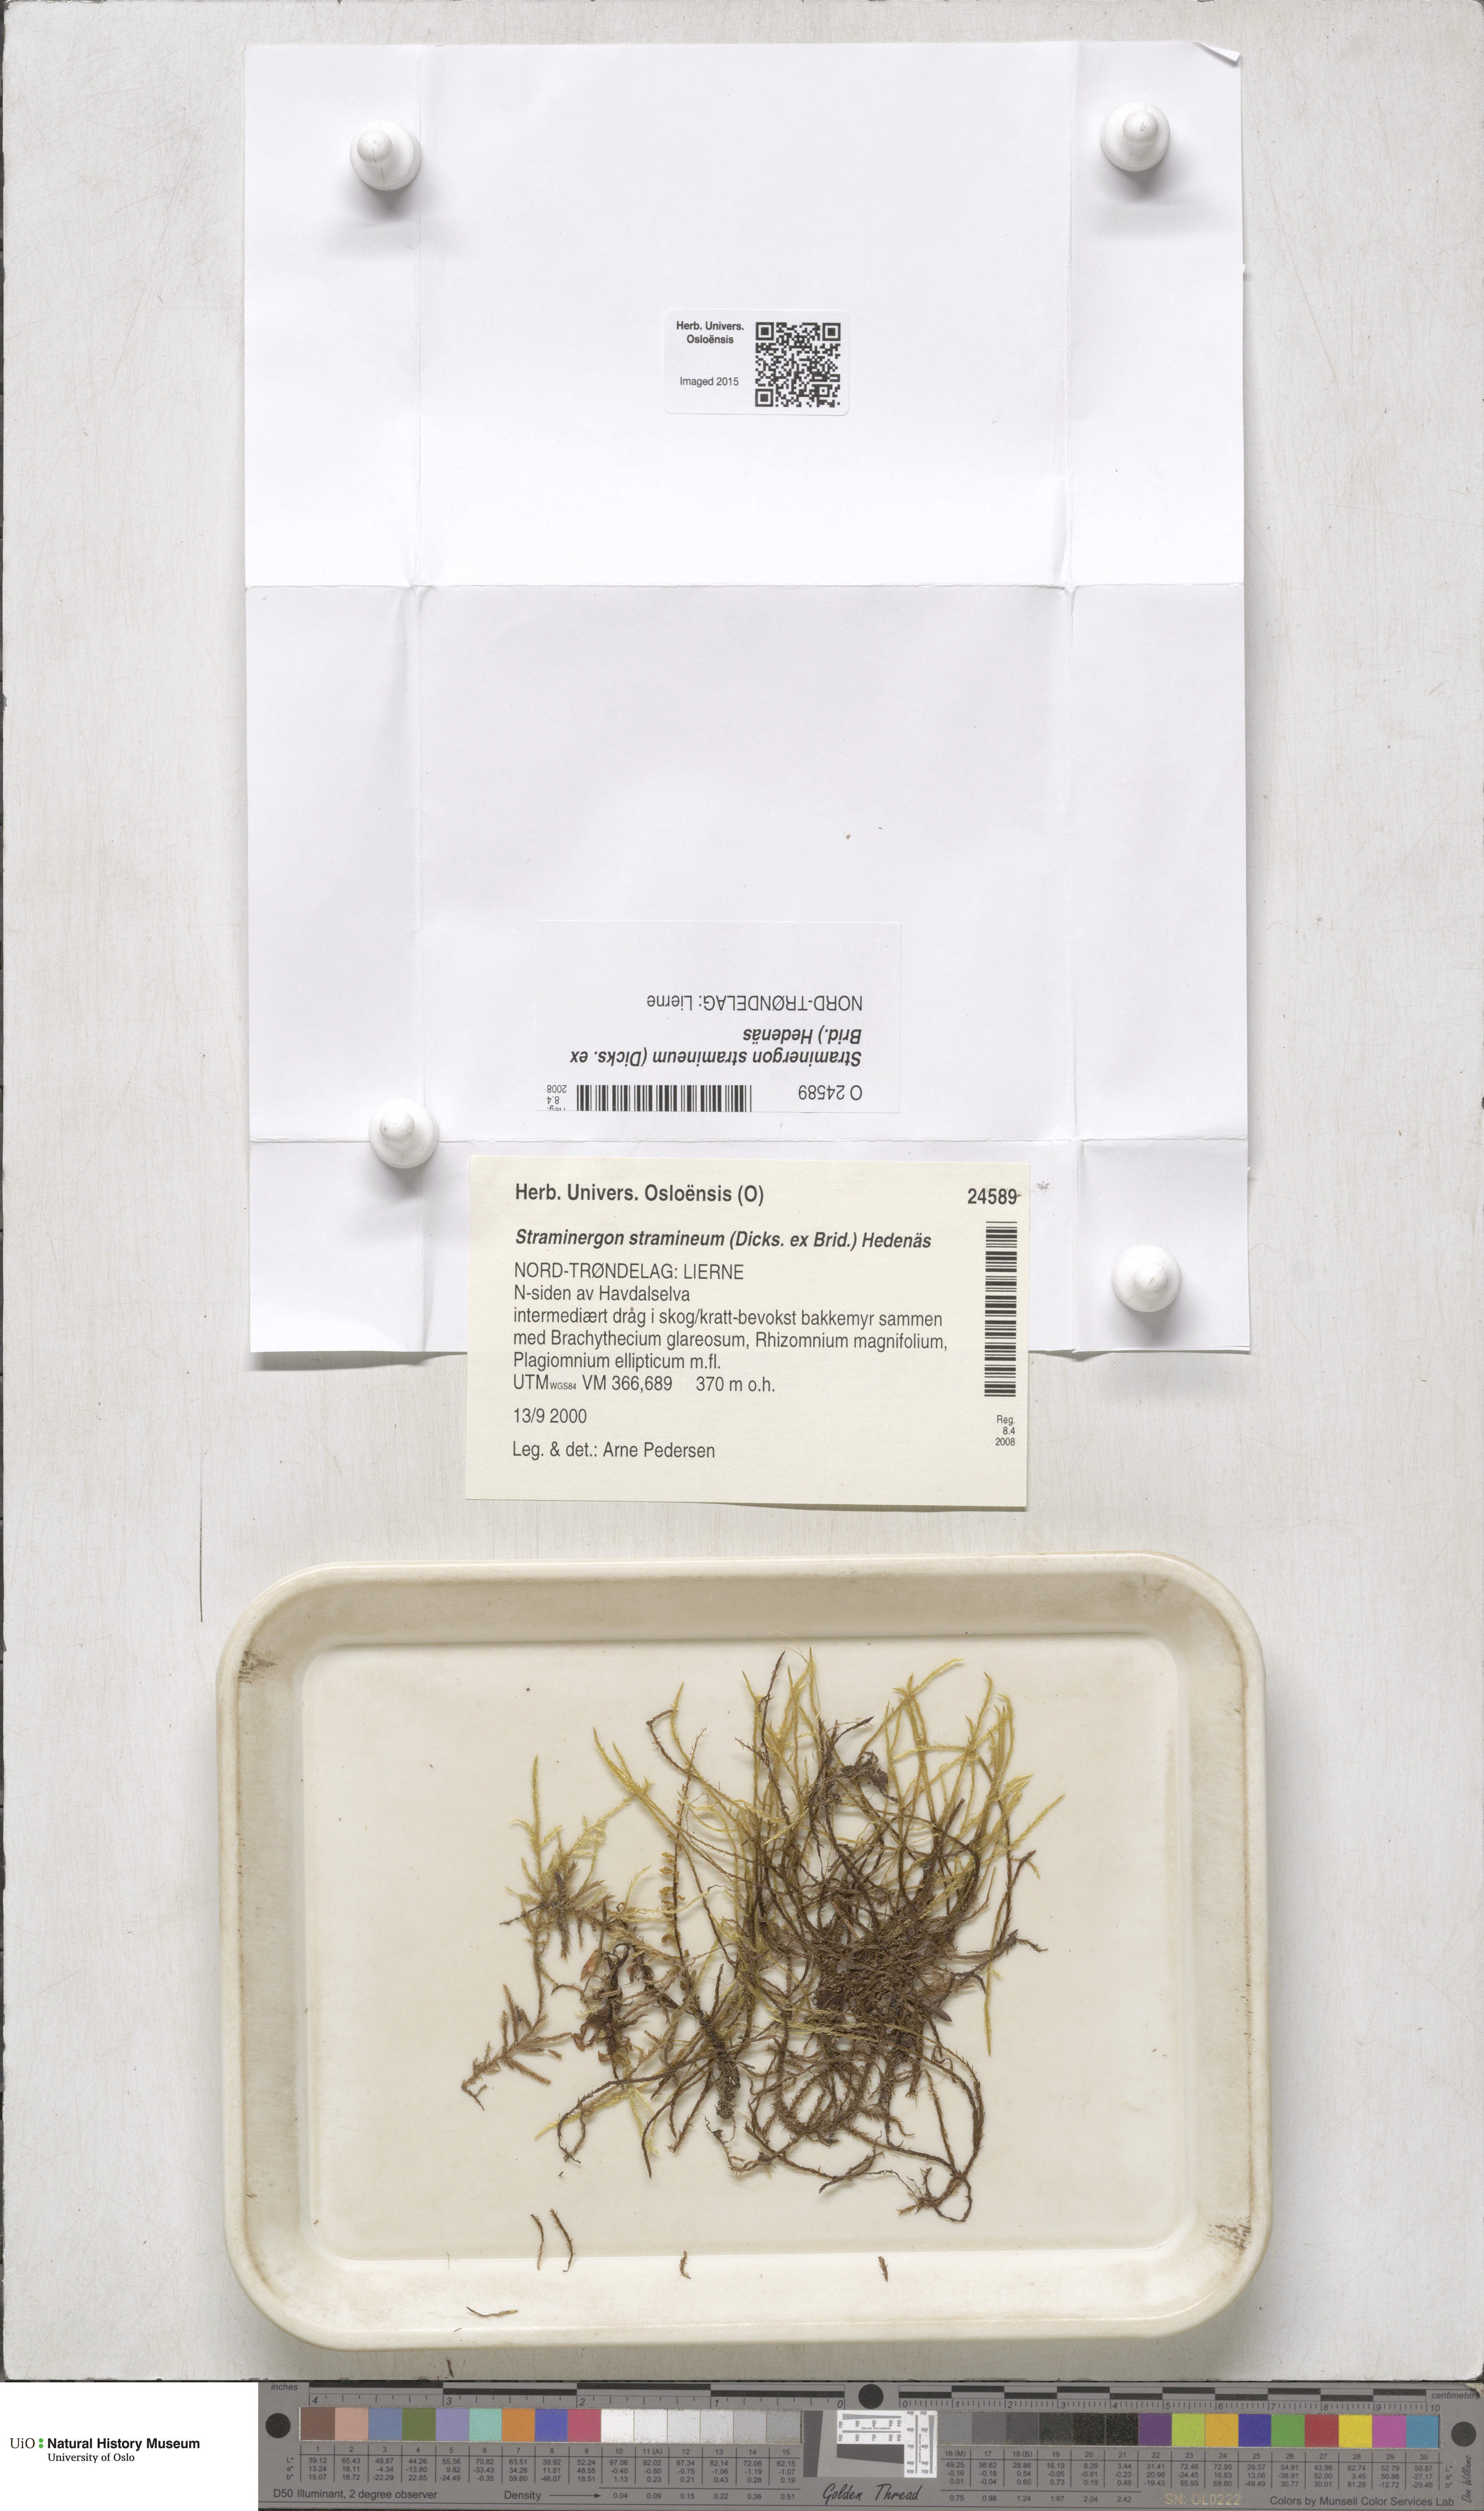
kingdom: Plantae
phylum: Bryophyta
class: Bryopsida
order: Hypnales
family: Calliergonaceae
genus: Straminergon
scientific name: Straminergon stramineum
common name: Straw moss
